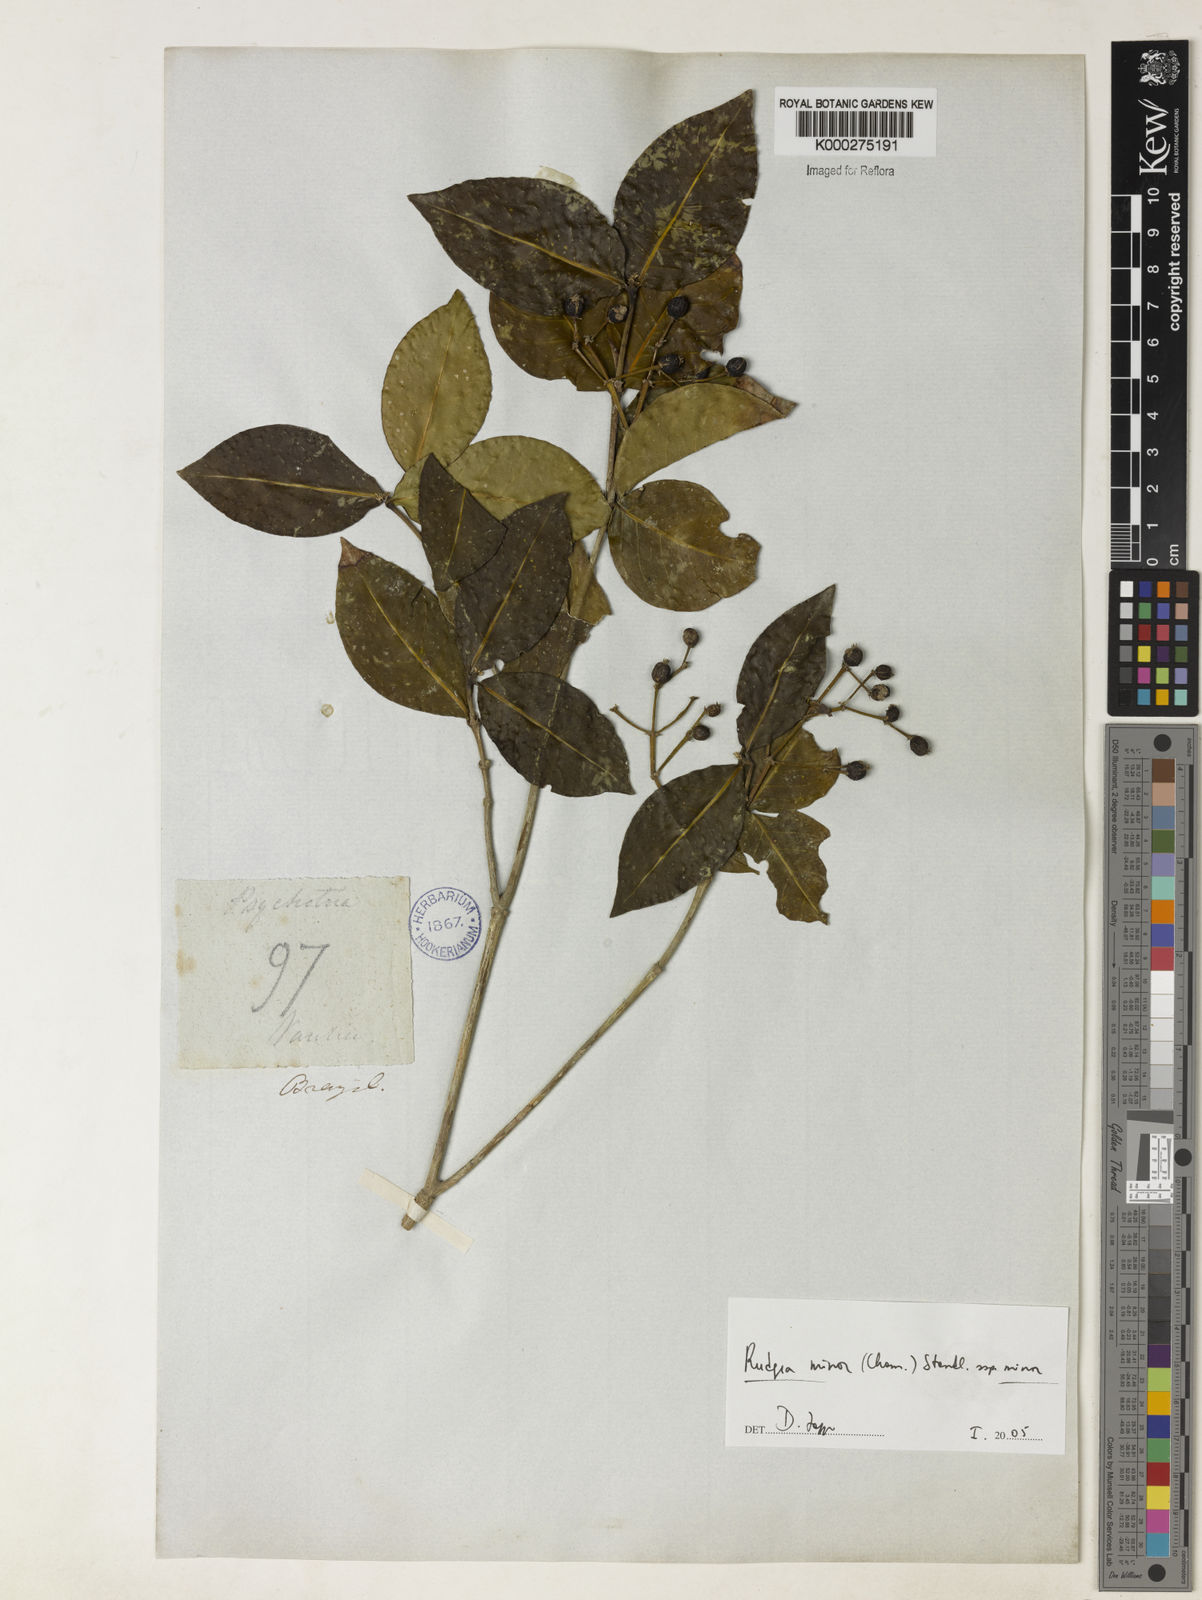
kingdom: Plantae
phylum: Tracheophyta
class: Magnoliopsida
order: Gentianales
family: Rubiaceae
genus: Rudgea
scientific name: Rudgea minor
